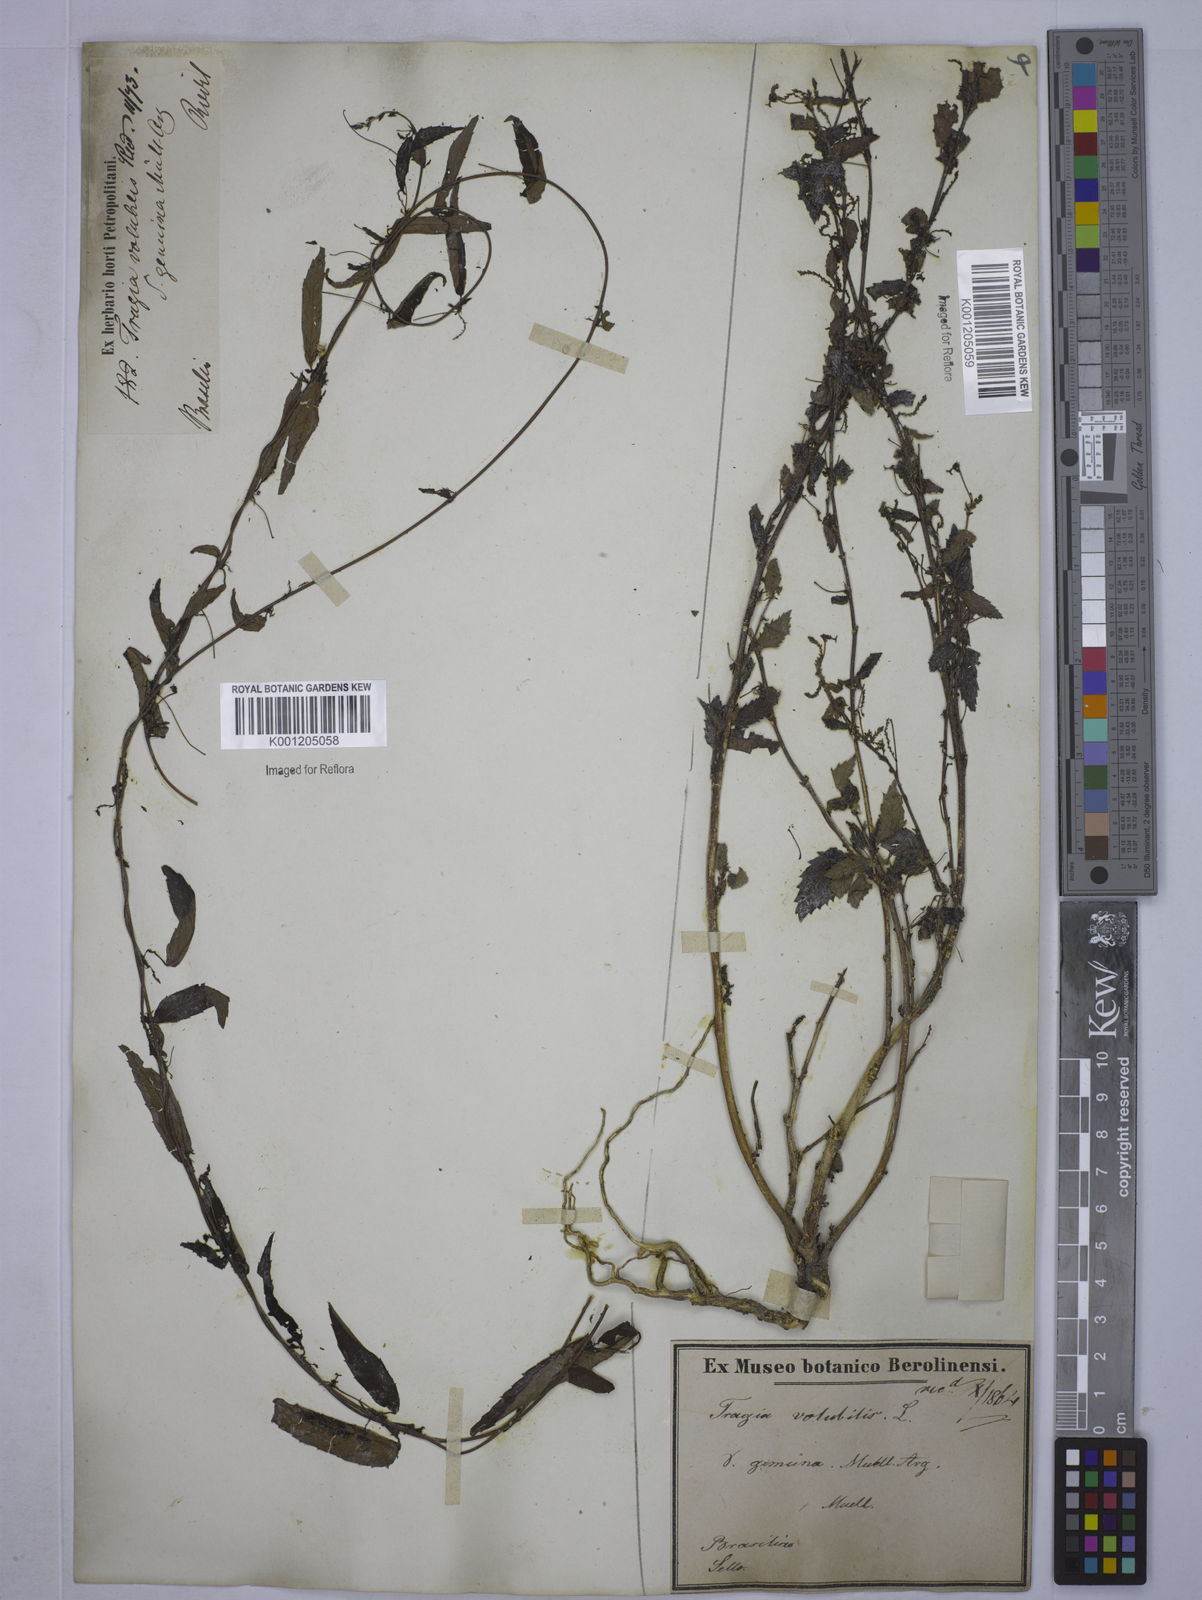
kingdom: Plantae
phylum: Tracheophyta
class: Magnoliopsida
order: Malpighiales
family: Euphorbiaceae
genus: Tragia
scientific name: Tragia volubilis
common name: Twining cow-itch
